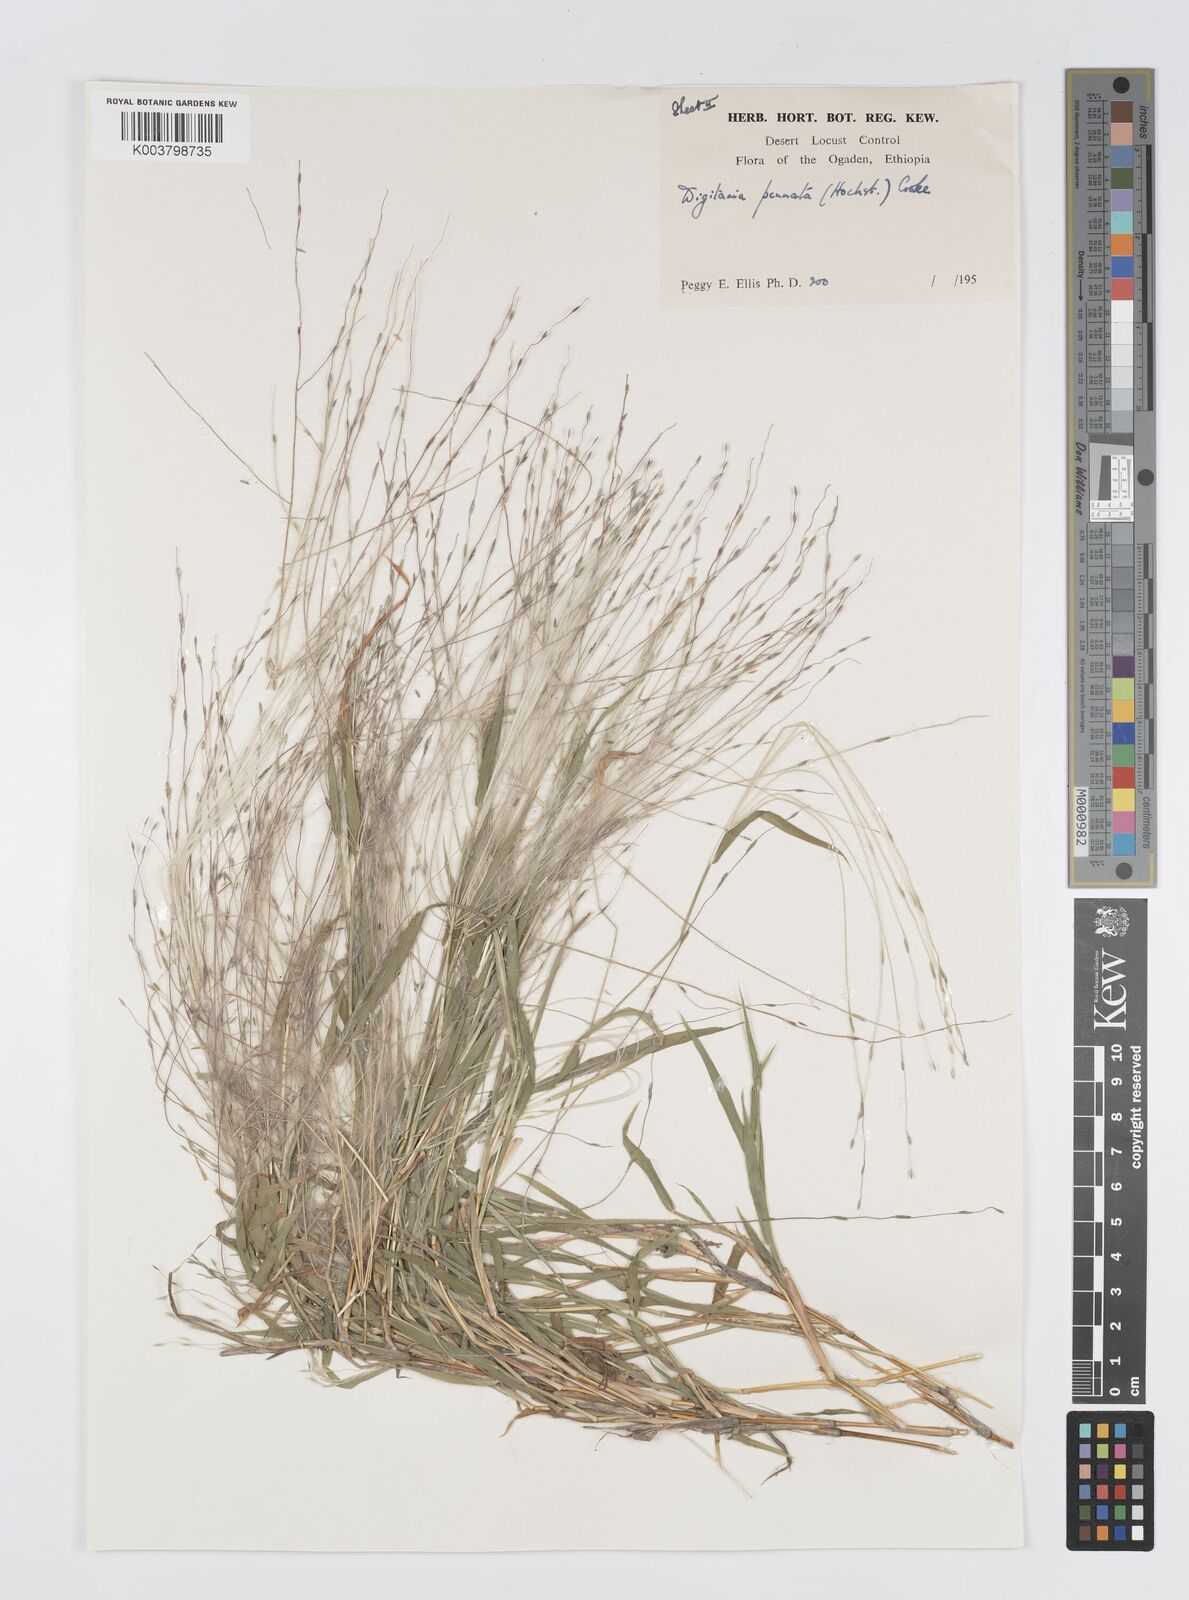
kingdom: Plantae
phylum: Tracheophyta
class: Liliopsida
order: Poales
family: Poaceae
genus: Digitaria
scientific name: Digitaria pennata
